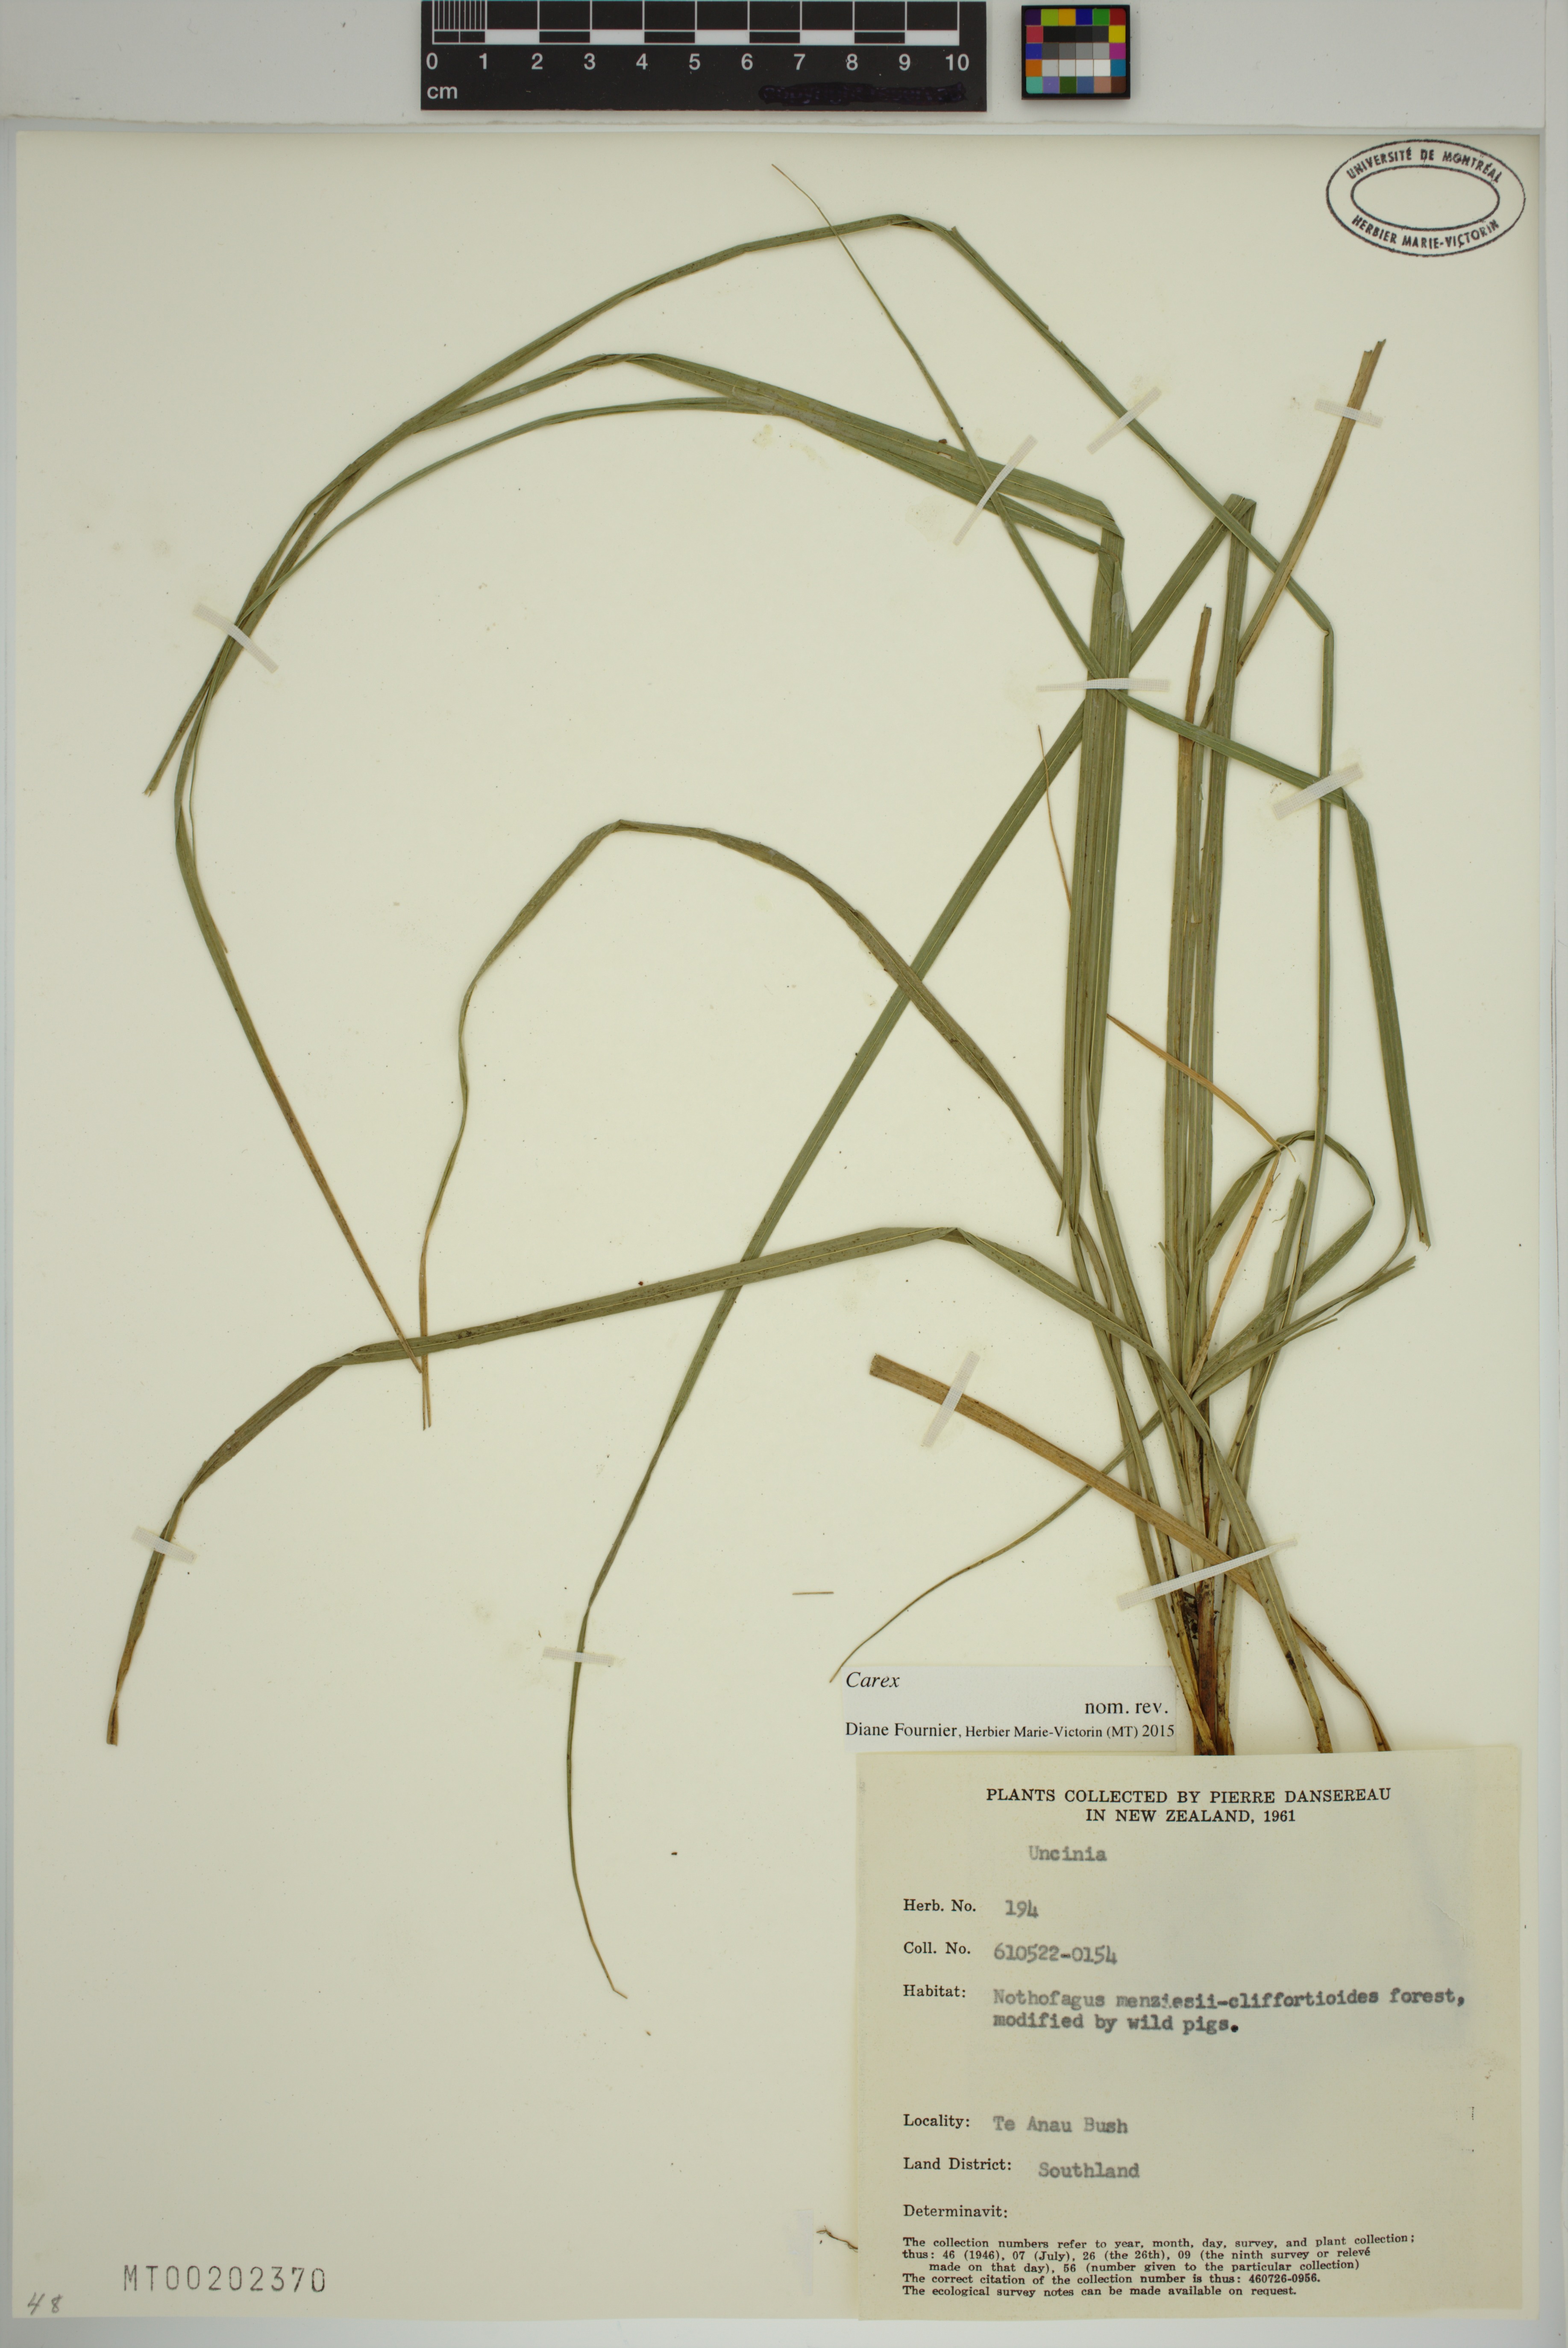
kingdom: Plantae
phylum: Tracheophyta
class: Liliopsida
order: Poales
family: Cyperaceae
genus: Carex
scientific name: Carex
